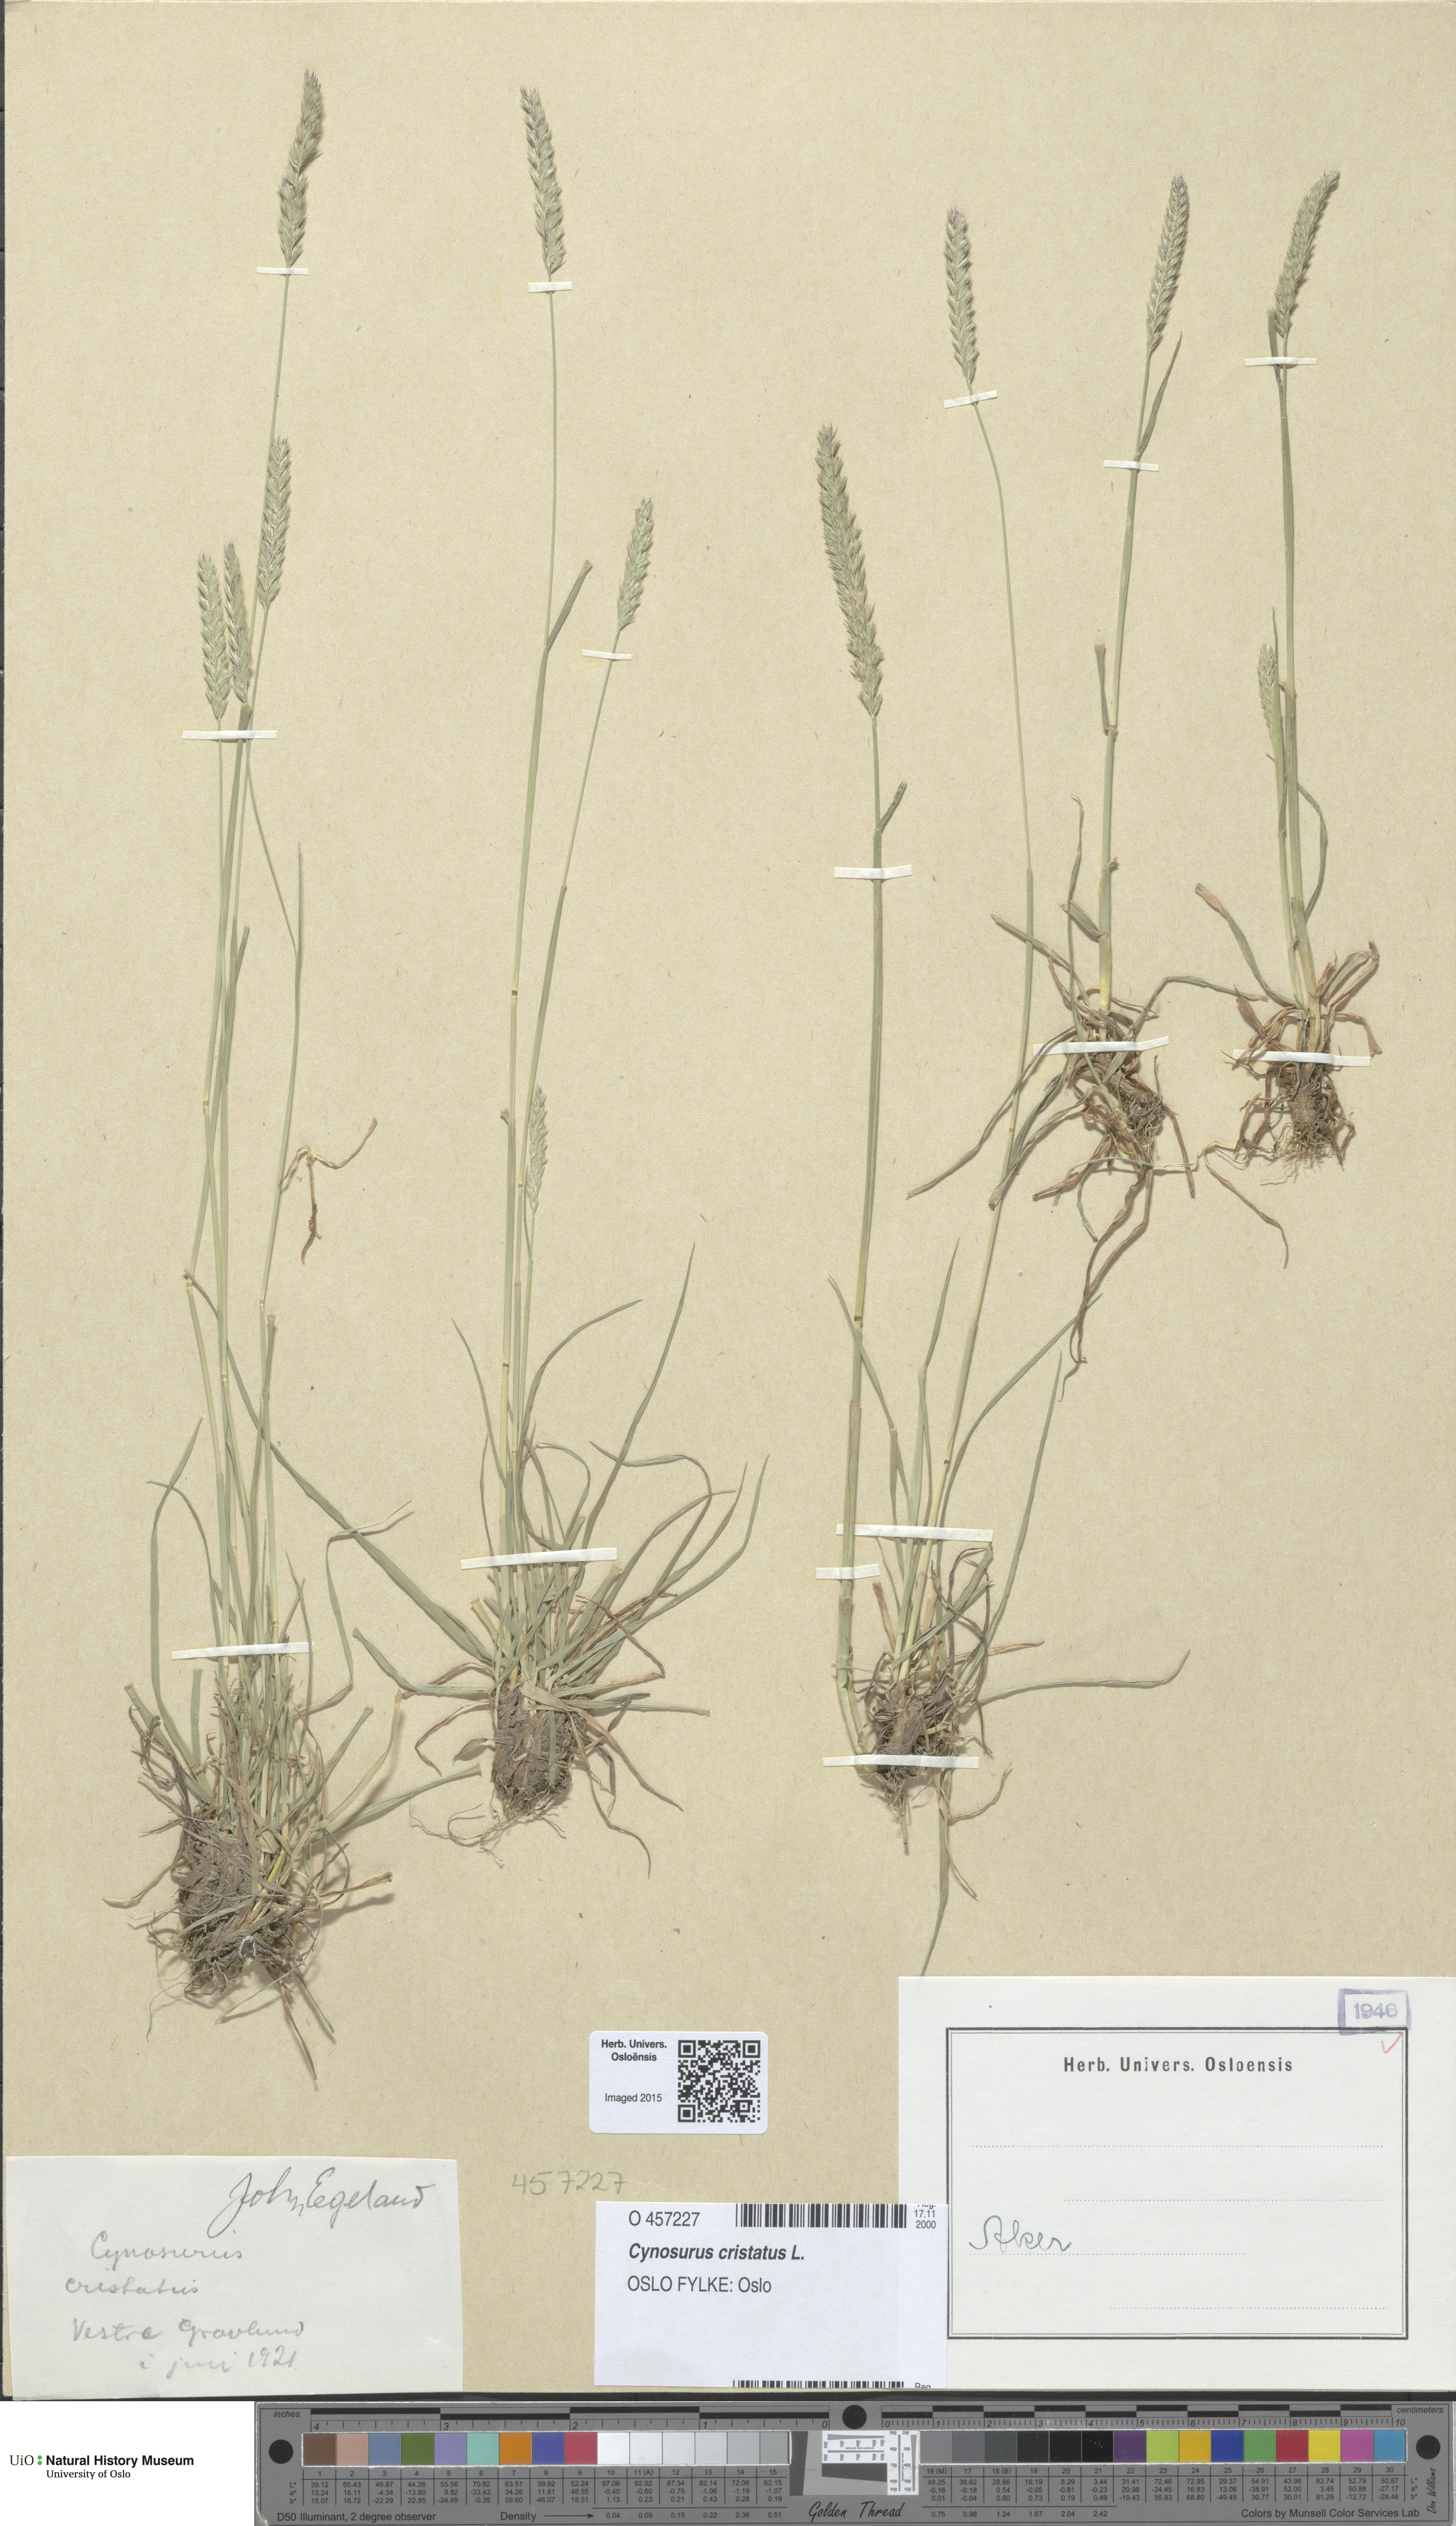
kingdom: Plantae
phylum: Tracheophyta
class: Liliopsida
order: Poales
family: Poaceae
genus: Cynosurus
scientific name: Cynosurus cristatus
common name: Crested dog's-tail
